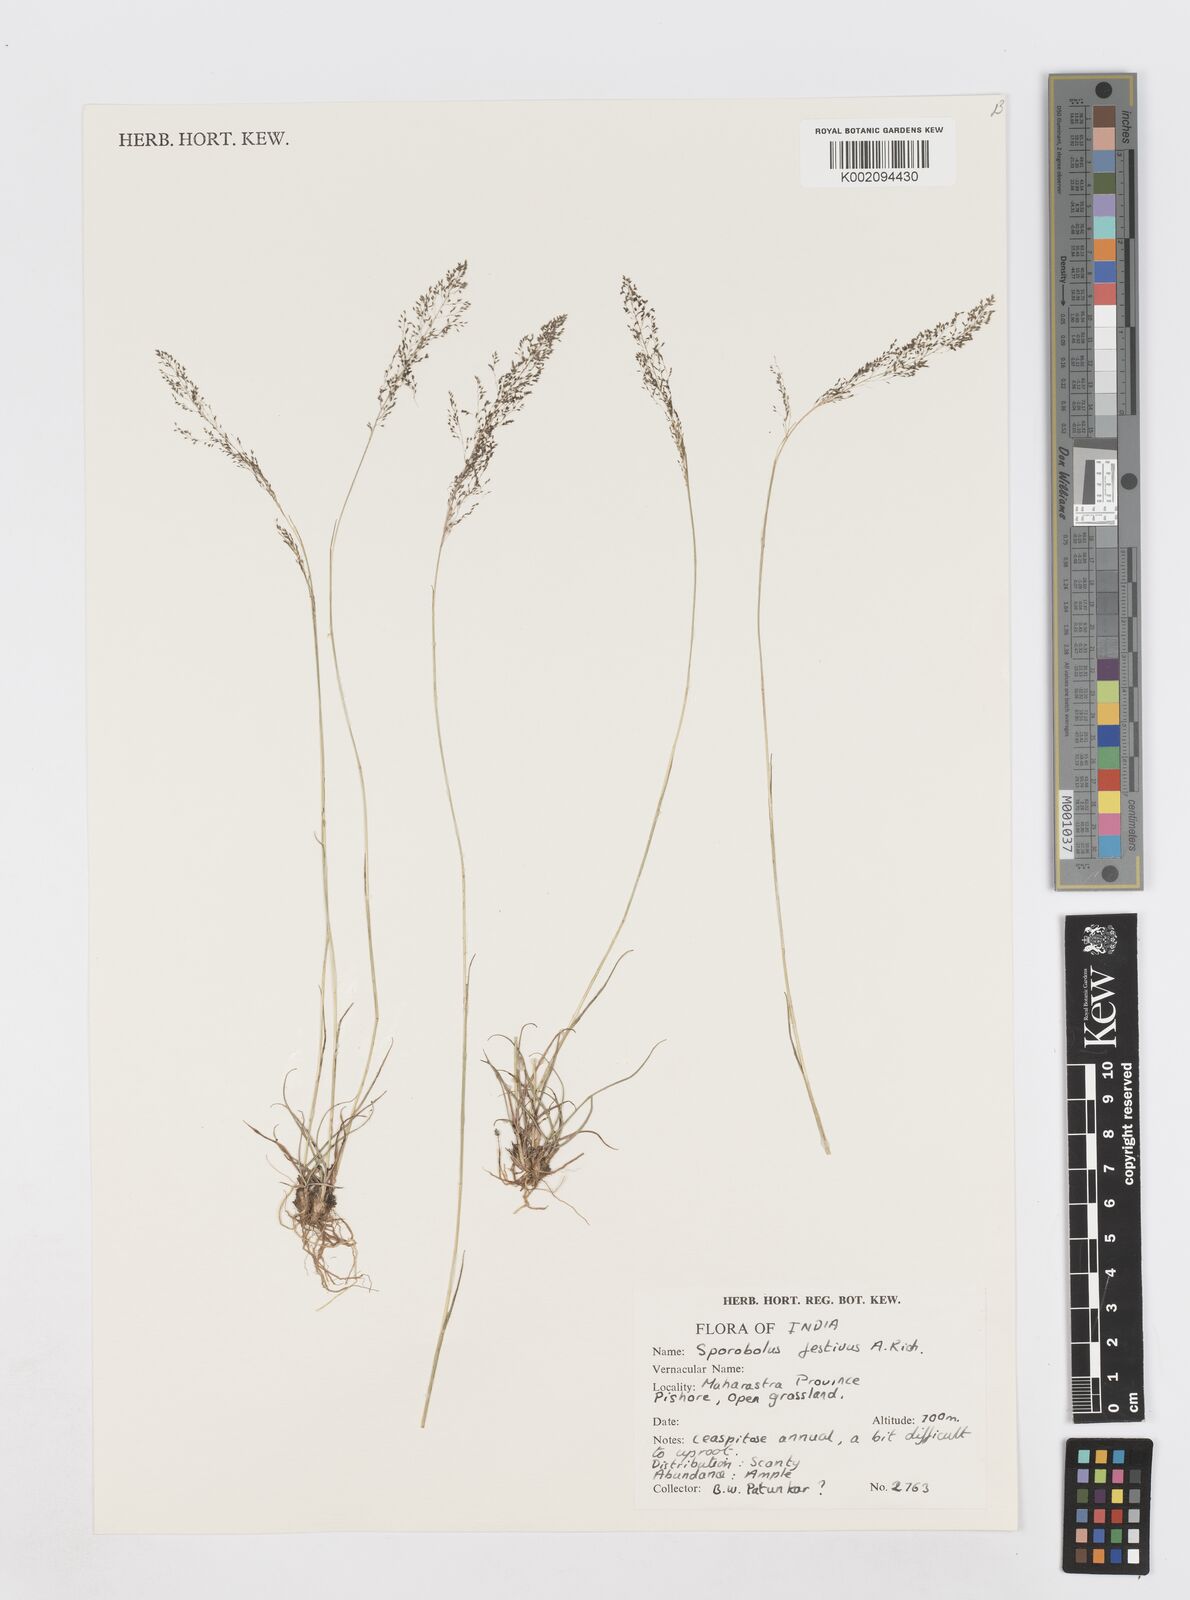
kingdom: Plantae
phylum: Tracheophyta
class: Liliopsida
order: Poales
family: Poaceae
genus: Sporobolus
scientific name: Sporobolus festivus
